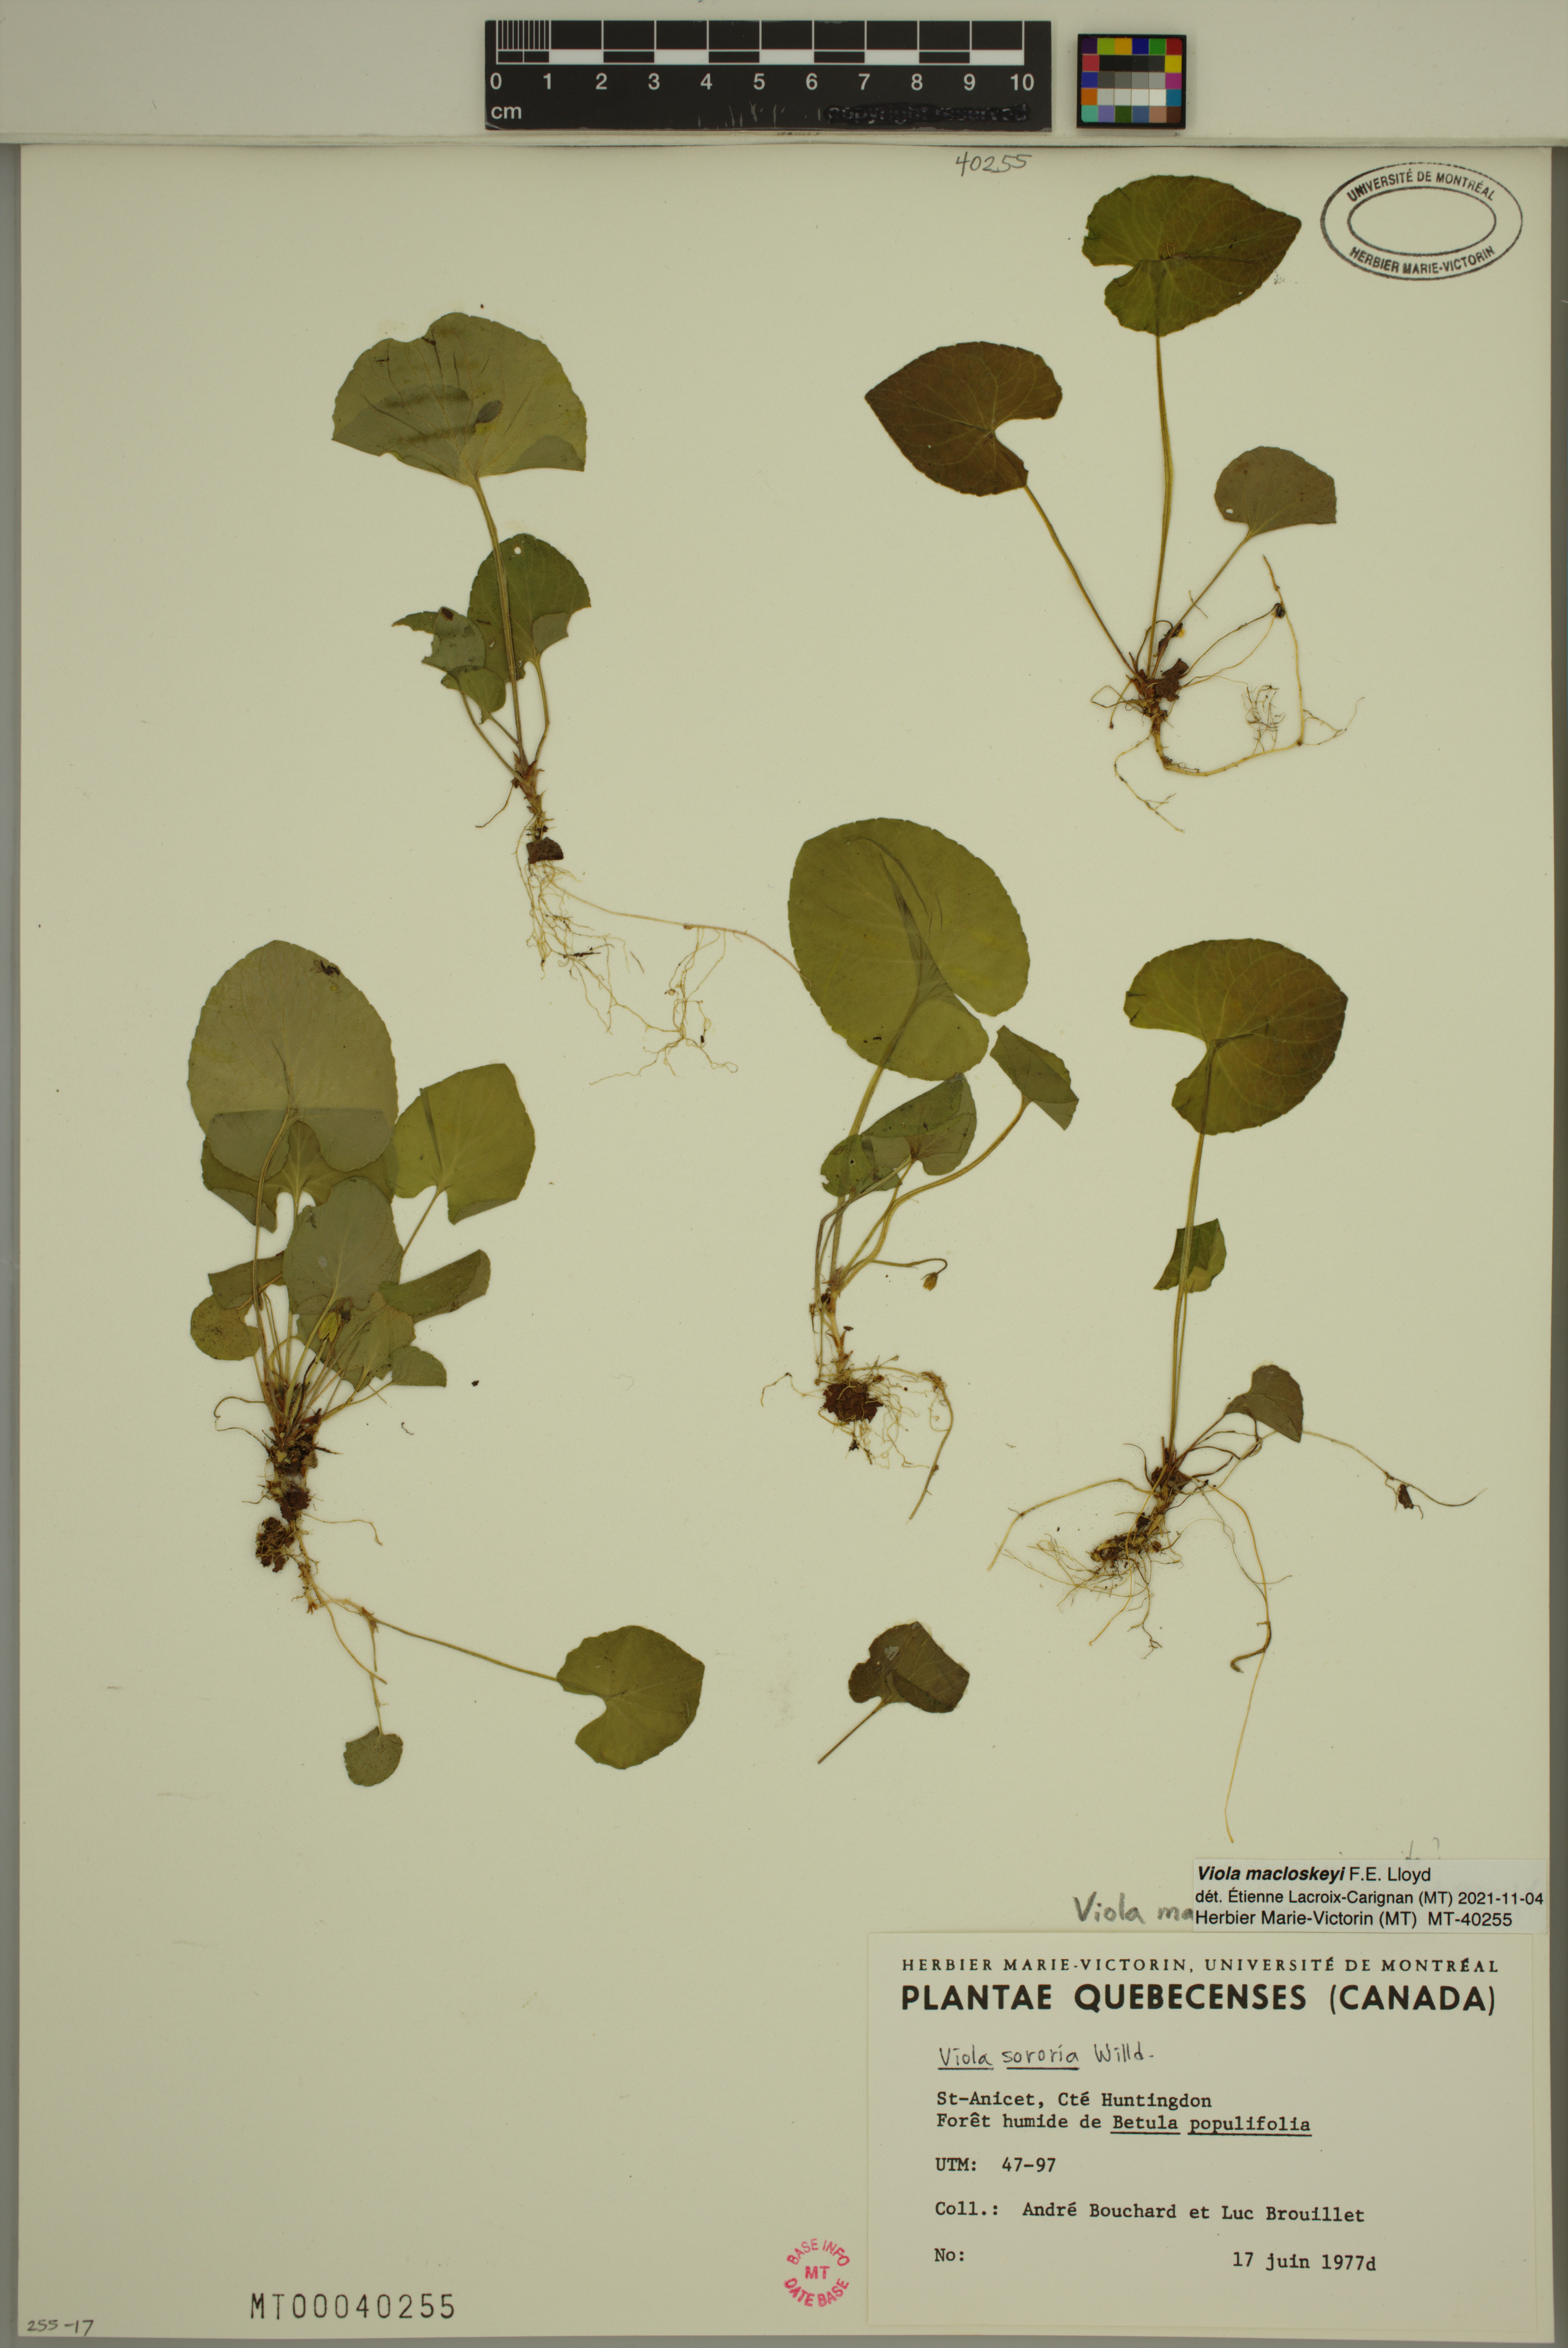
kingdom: Plantae
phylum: Tracheophyta
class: Magnoliopsida
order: Malpighiales
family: Violaceae
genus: Viola
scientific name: Viola macloskeyi
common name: Macloskey's violet
